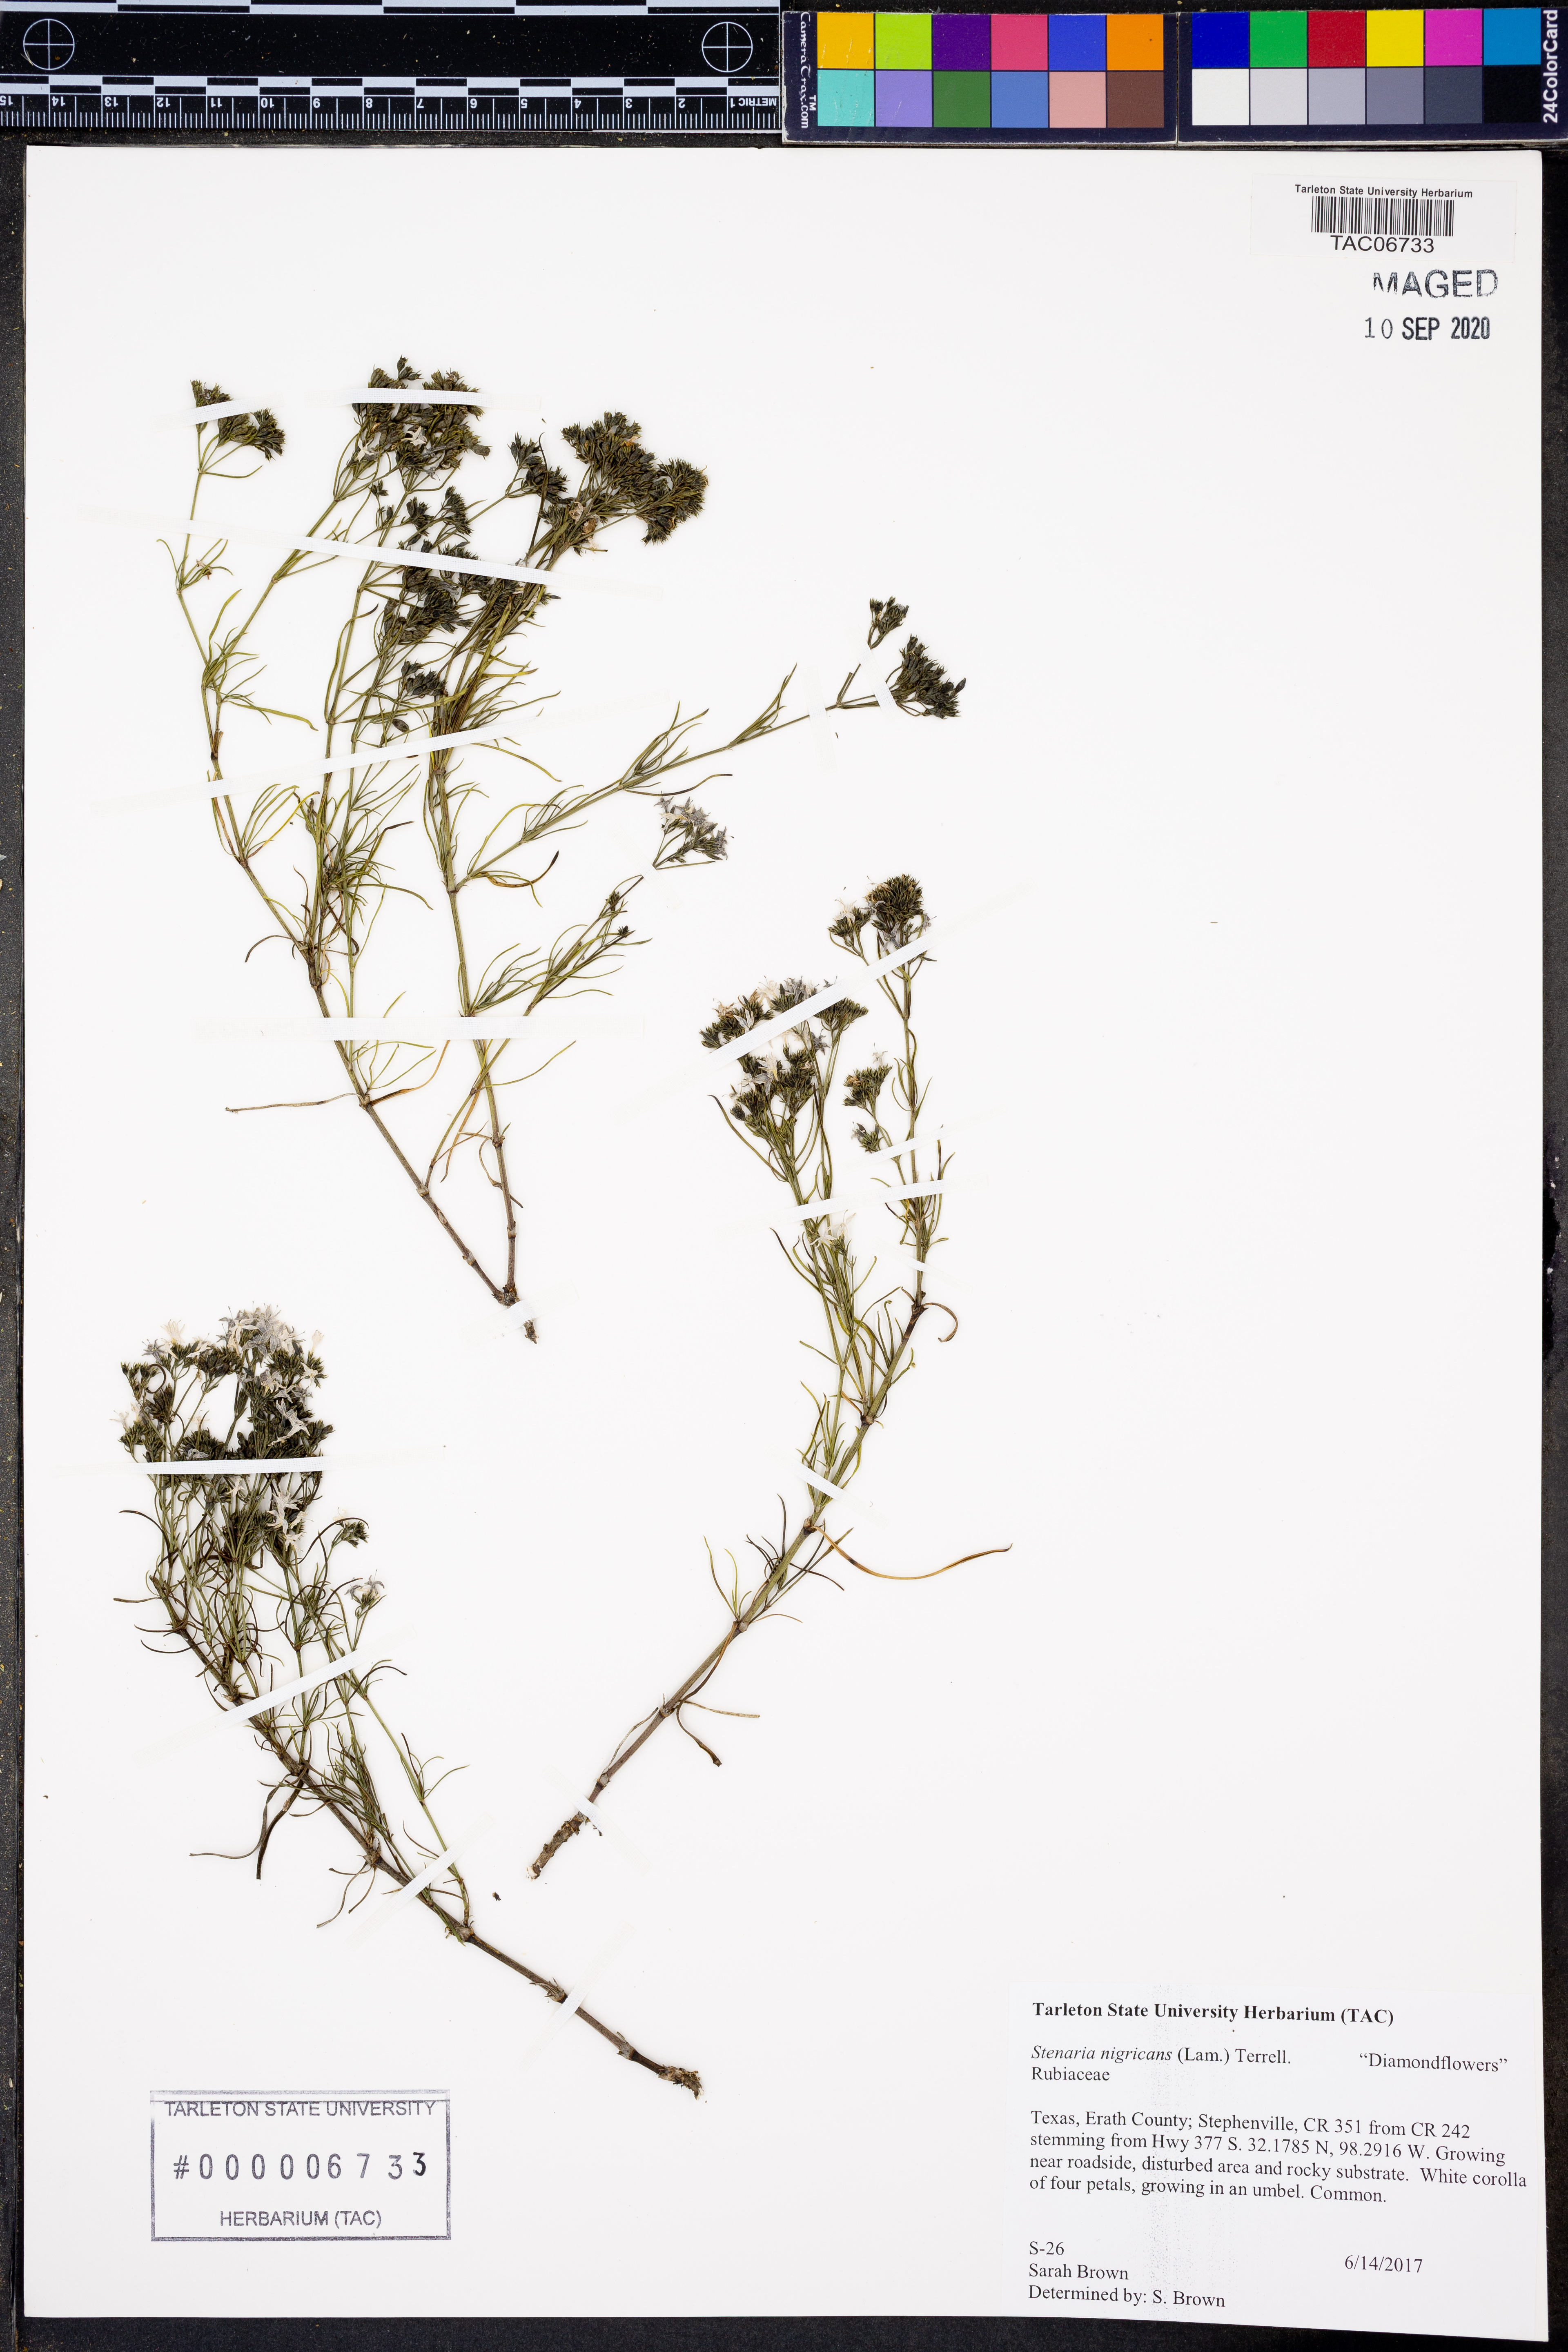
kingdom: Plantae
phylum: Tracheophyta
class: Magnoliopsida
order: Gentianales
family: Rubiaceae
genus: Stenaria
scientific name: Stenaria nigricans
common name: Diamondflowers
